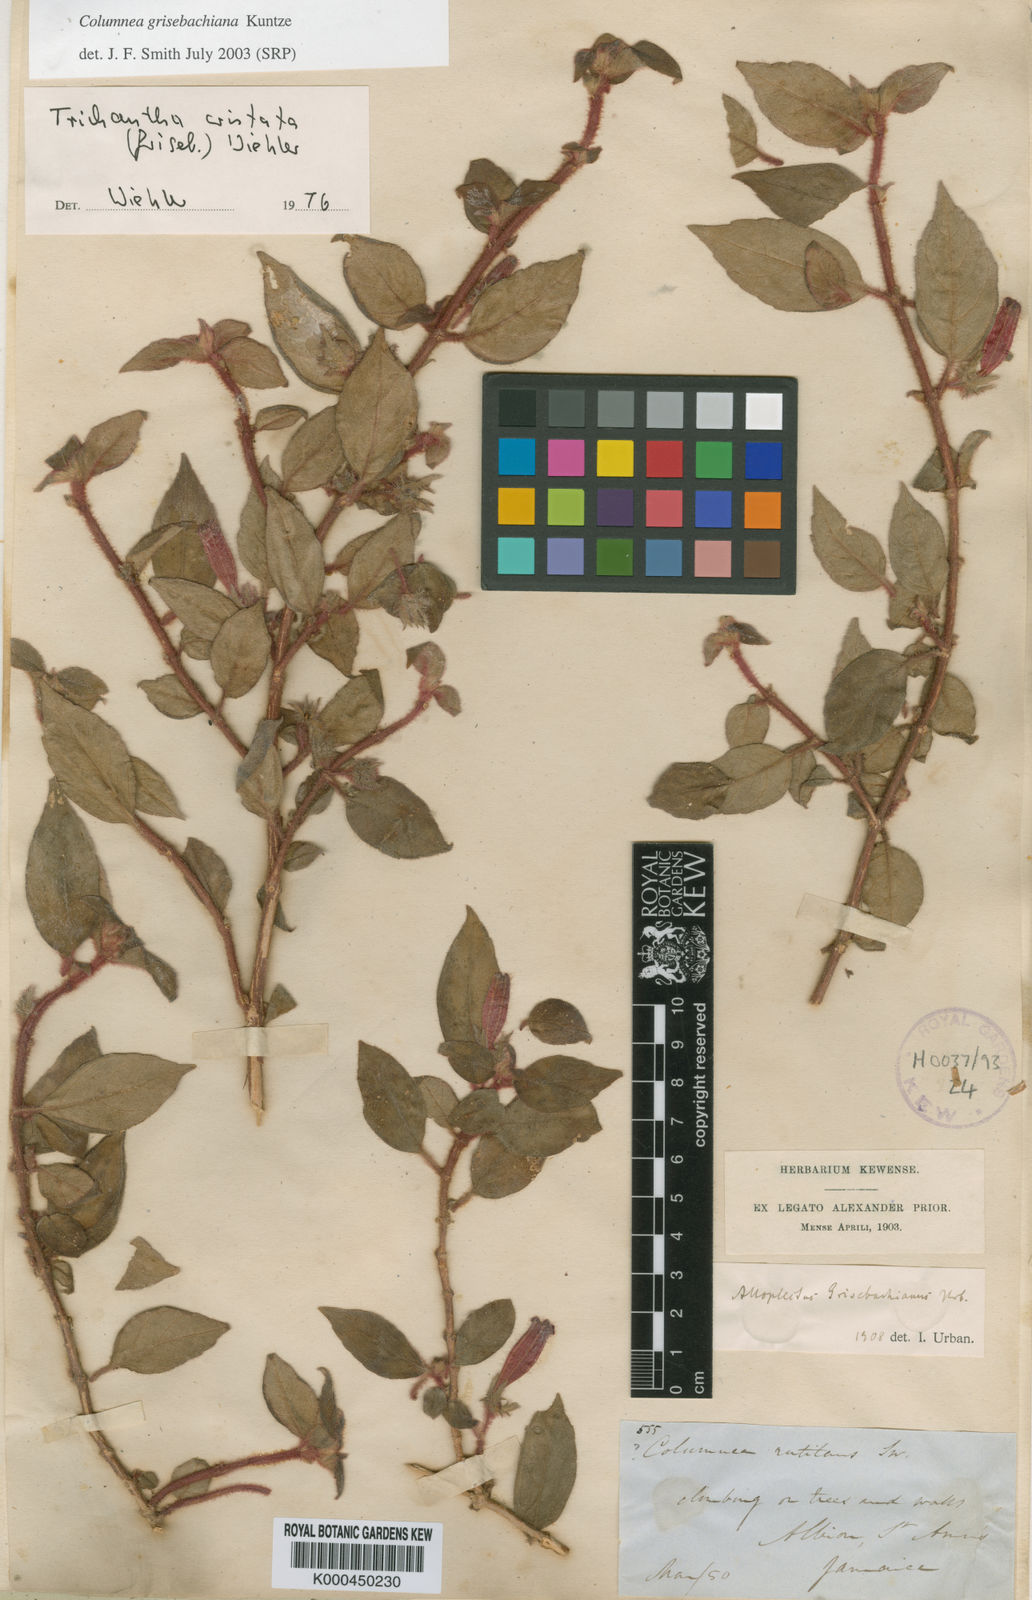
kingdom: Plantae
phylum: Tracheophyta
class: Magnoliopsida
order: Lamiales
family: Gesneriaceae
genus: Columnea
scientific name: Columnea grisebachiana
